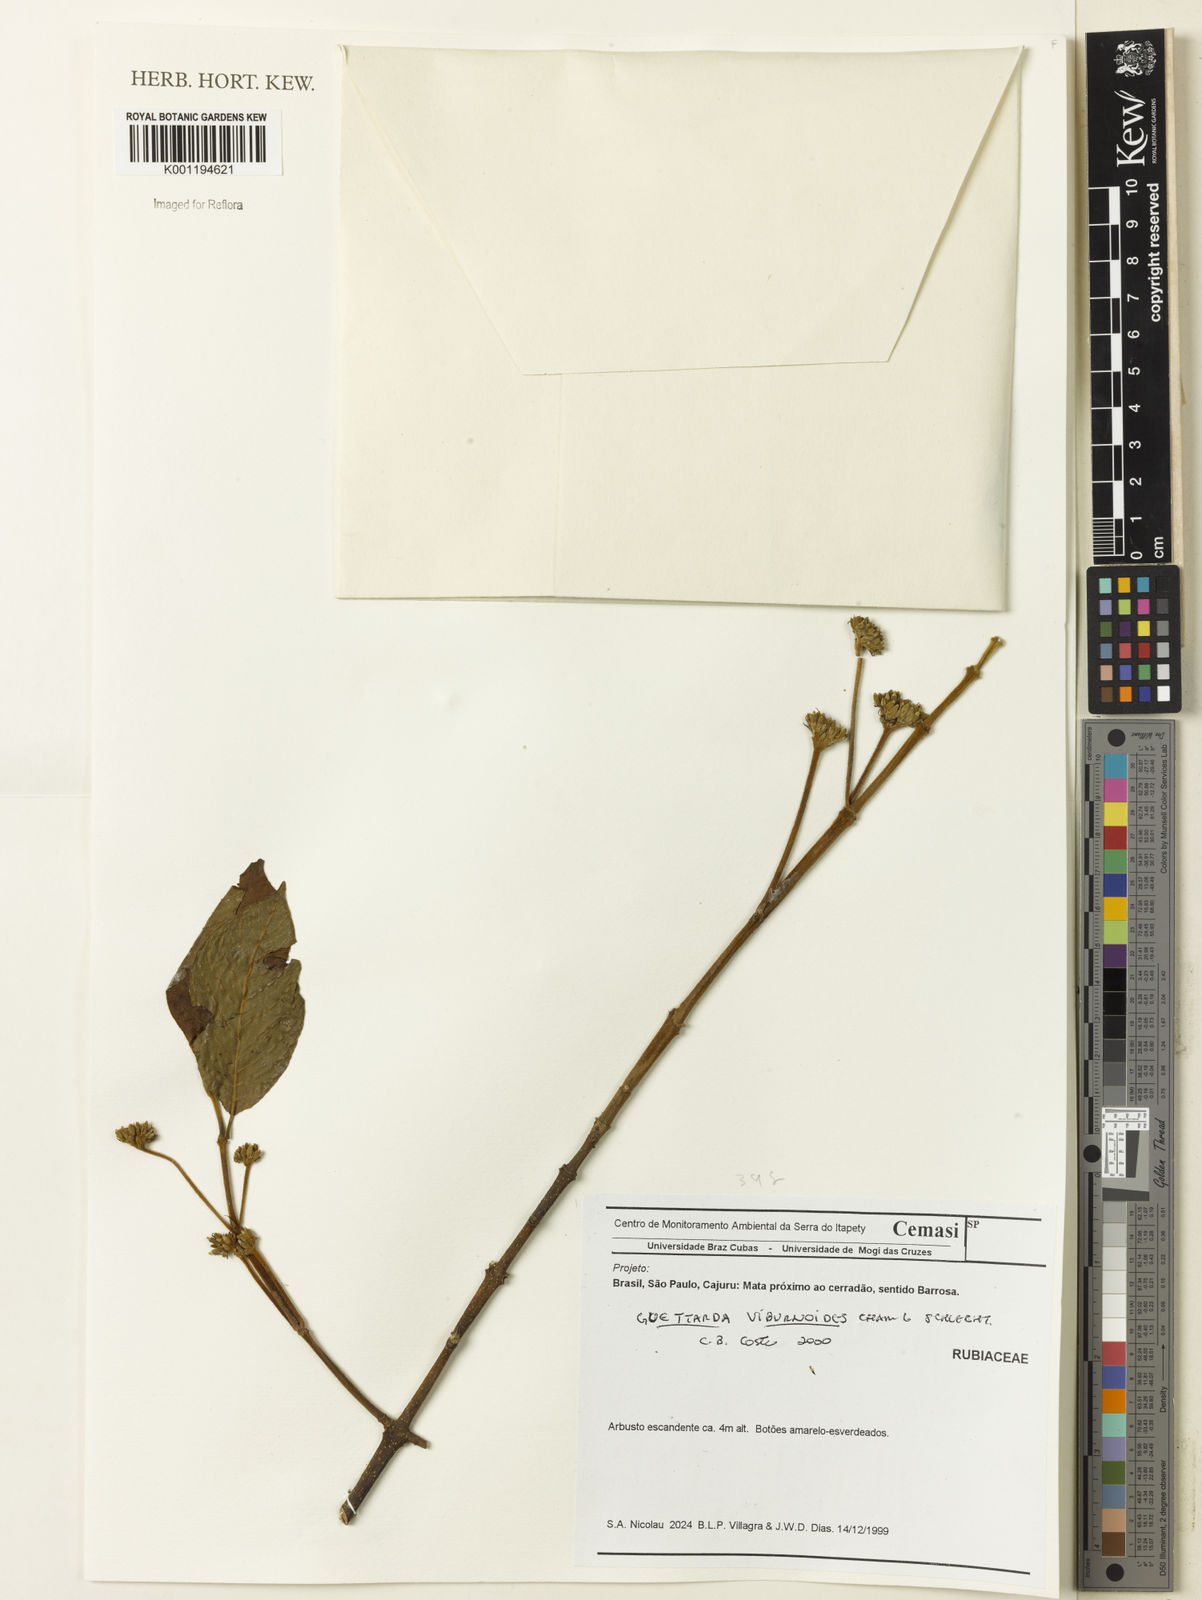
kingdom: Plantae
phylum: Tracheophyta
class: Magnoliopsida
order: Gentianales
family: Rubiaceae
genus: Guettarda
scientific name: Guettarda viburnoides
